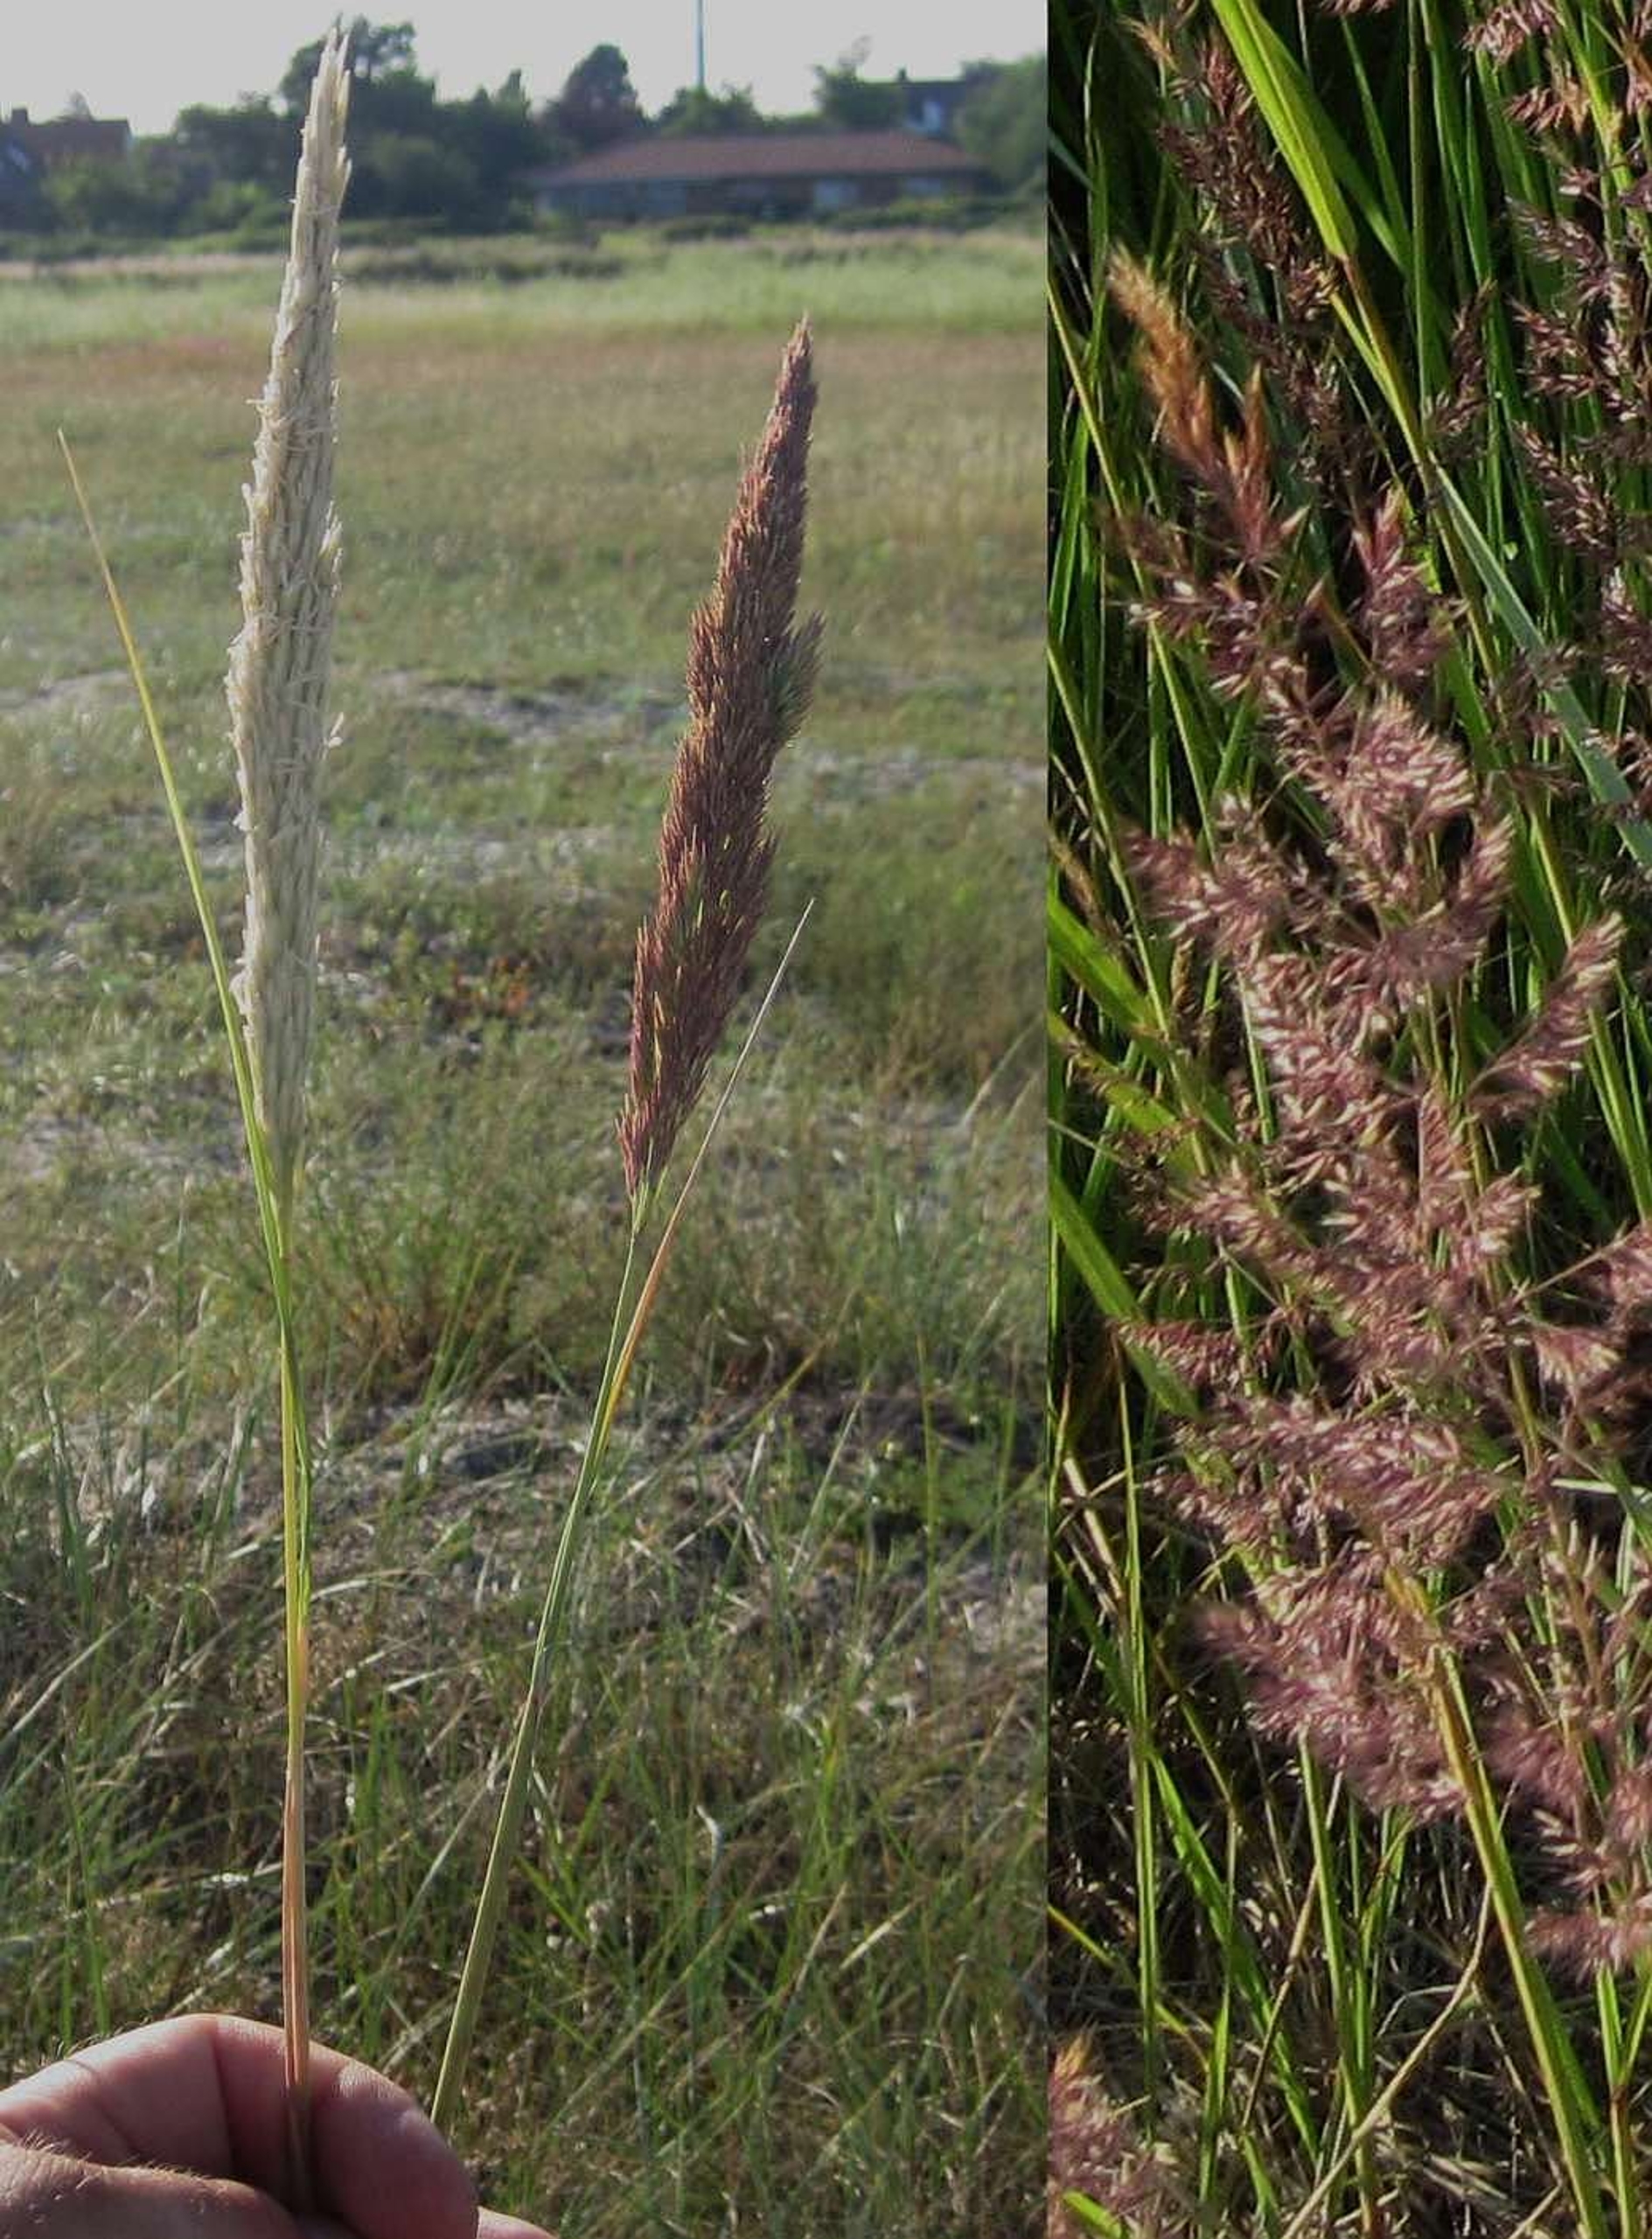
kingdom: Plantae
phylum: Tracheophyta
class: Liliopsida
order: Poales
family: Poaceae
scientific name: Poaceae
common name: Østersøhjælme
